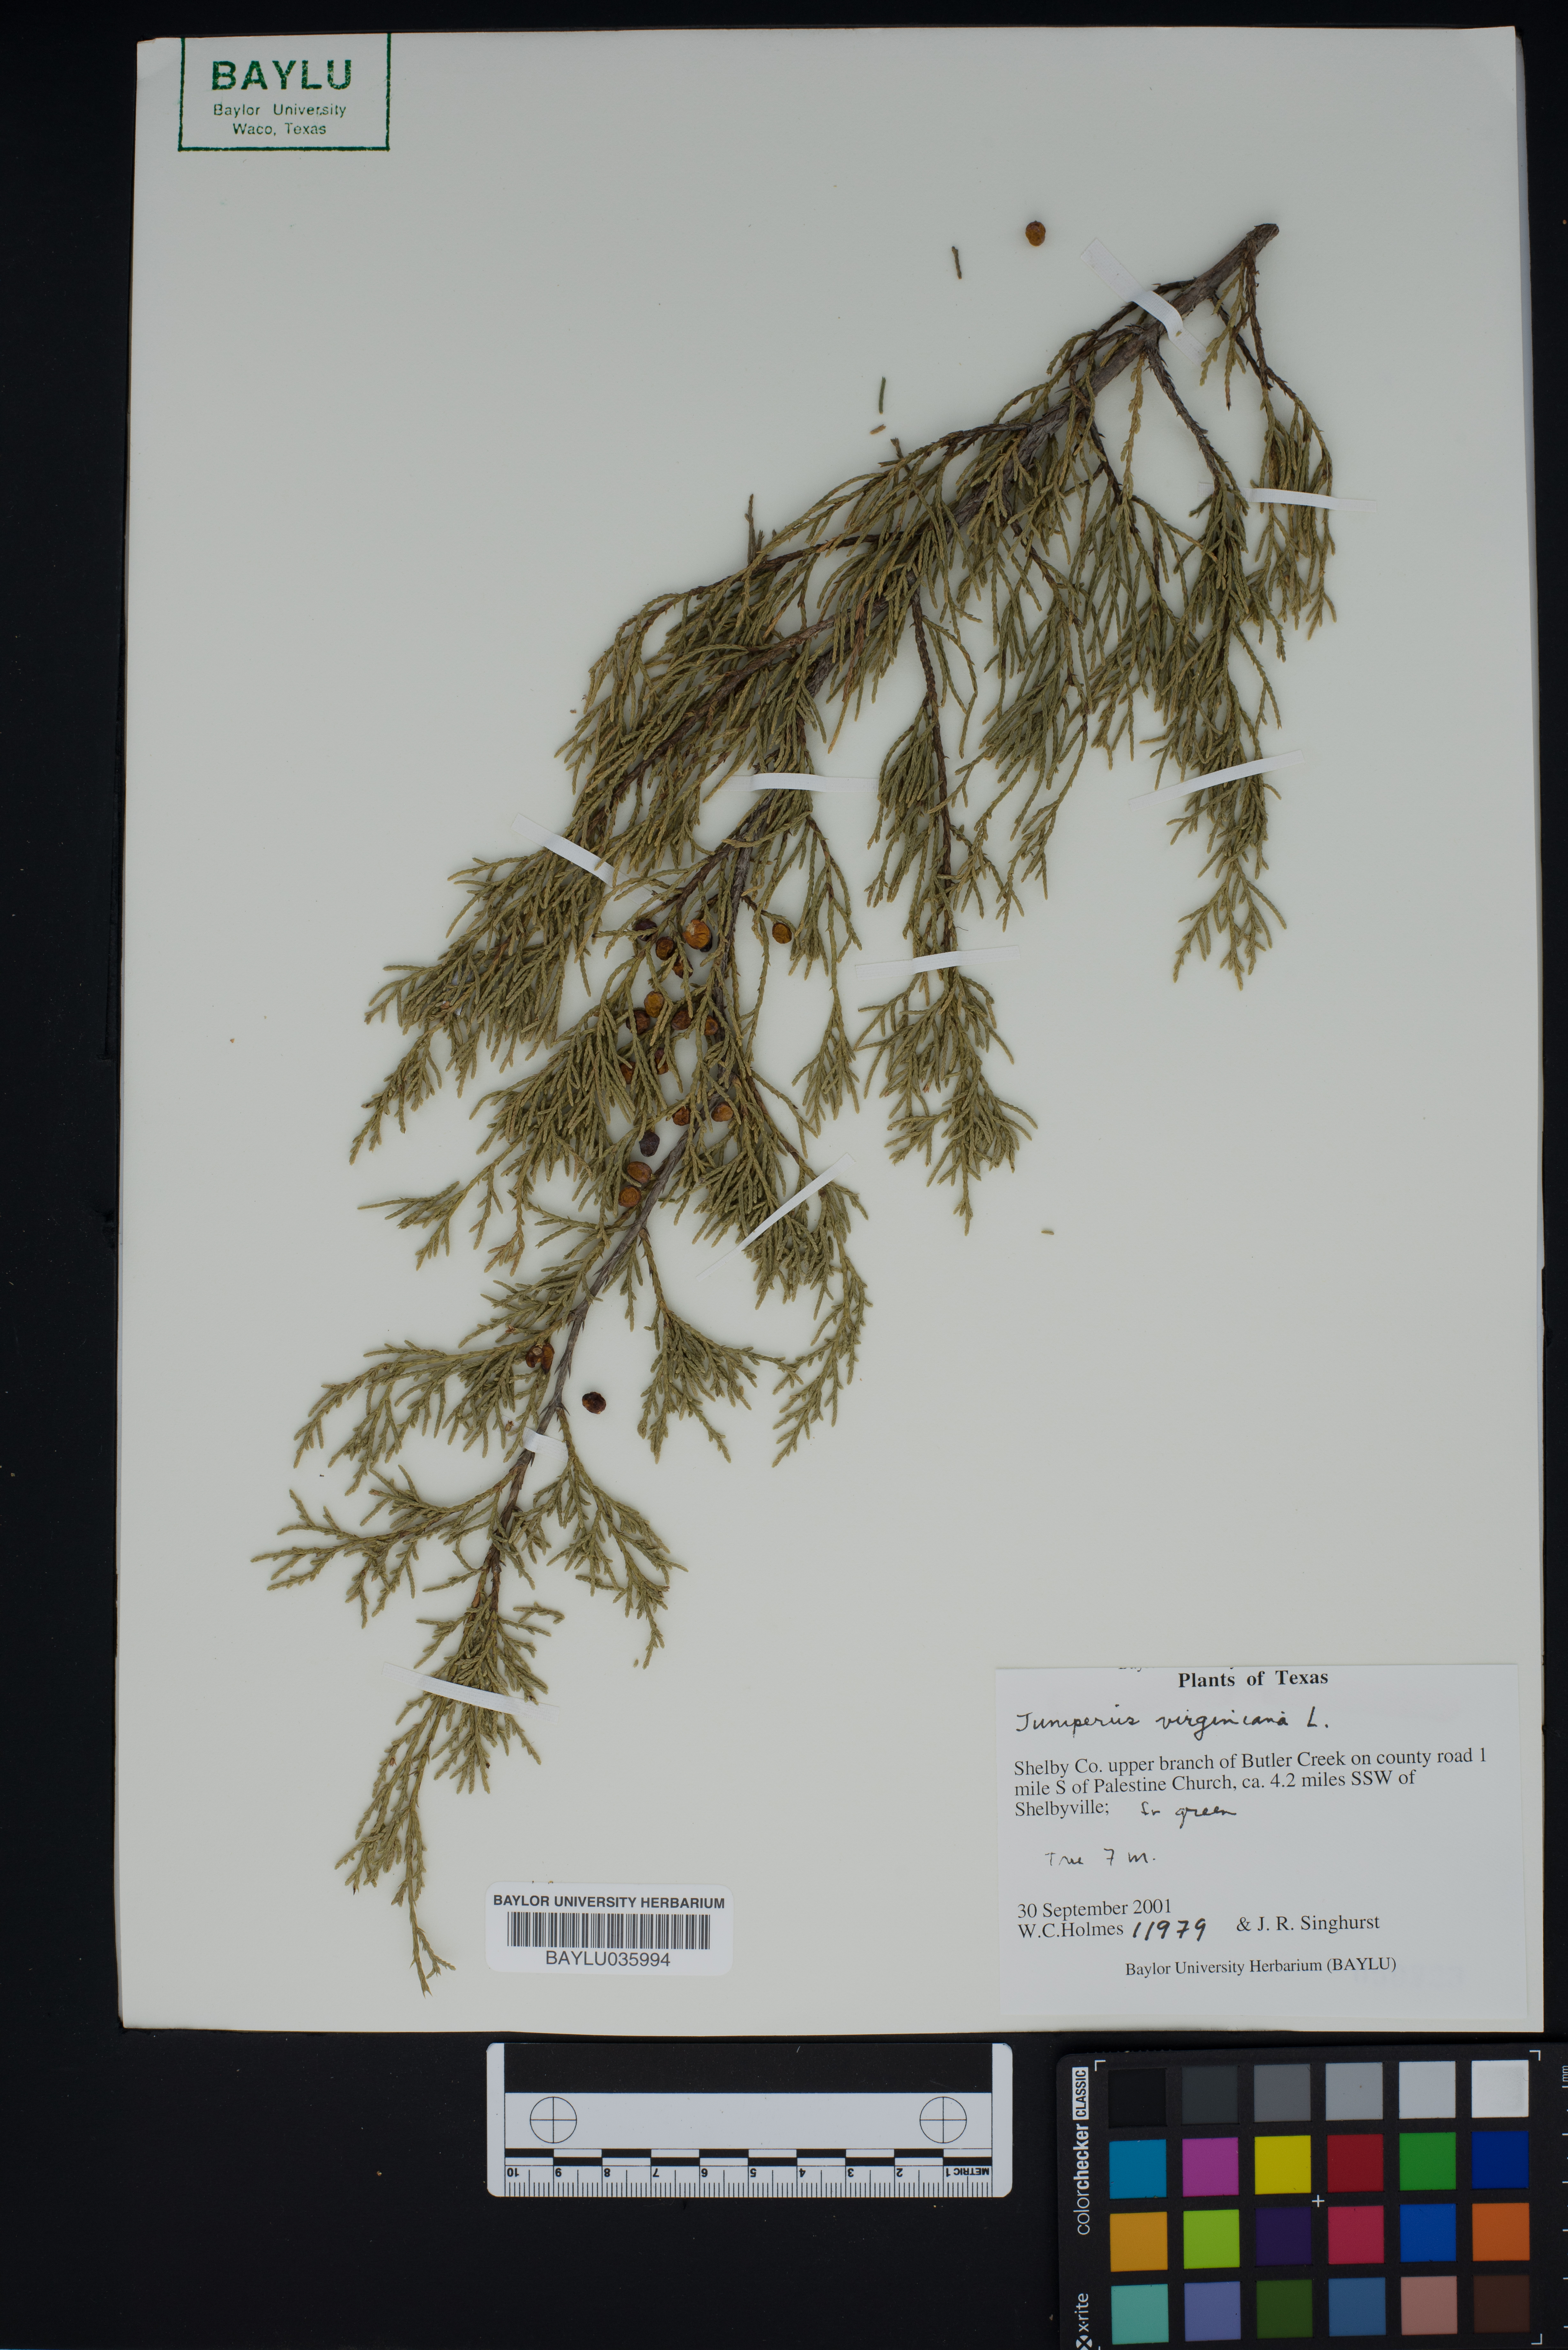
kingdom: Plantae
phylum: Tracheophyta
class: Pinopsida
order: Pinales
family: Cupressaceae
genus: Juniperus
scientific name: Juniperus virginiana
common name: Red juniper
